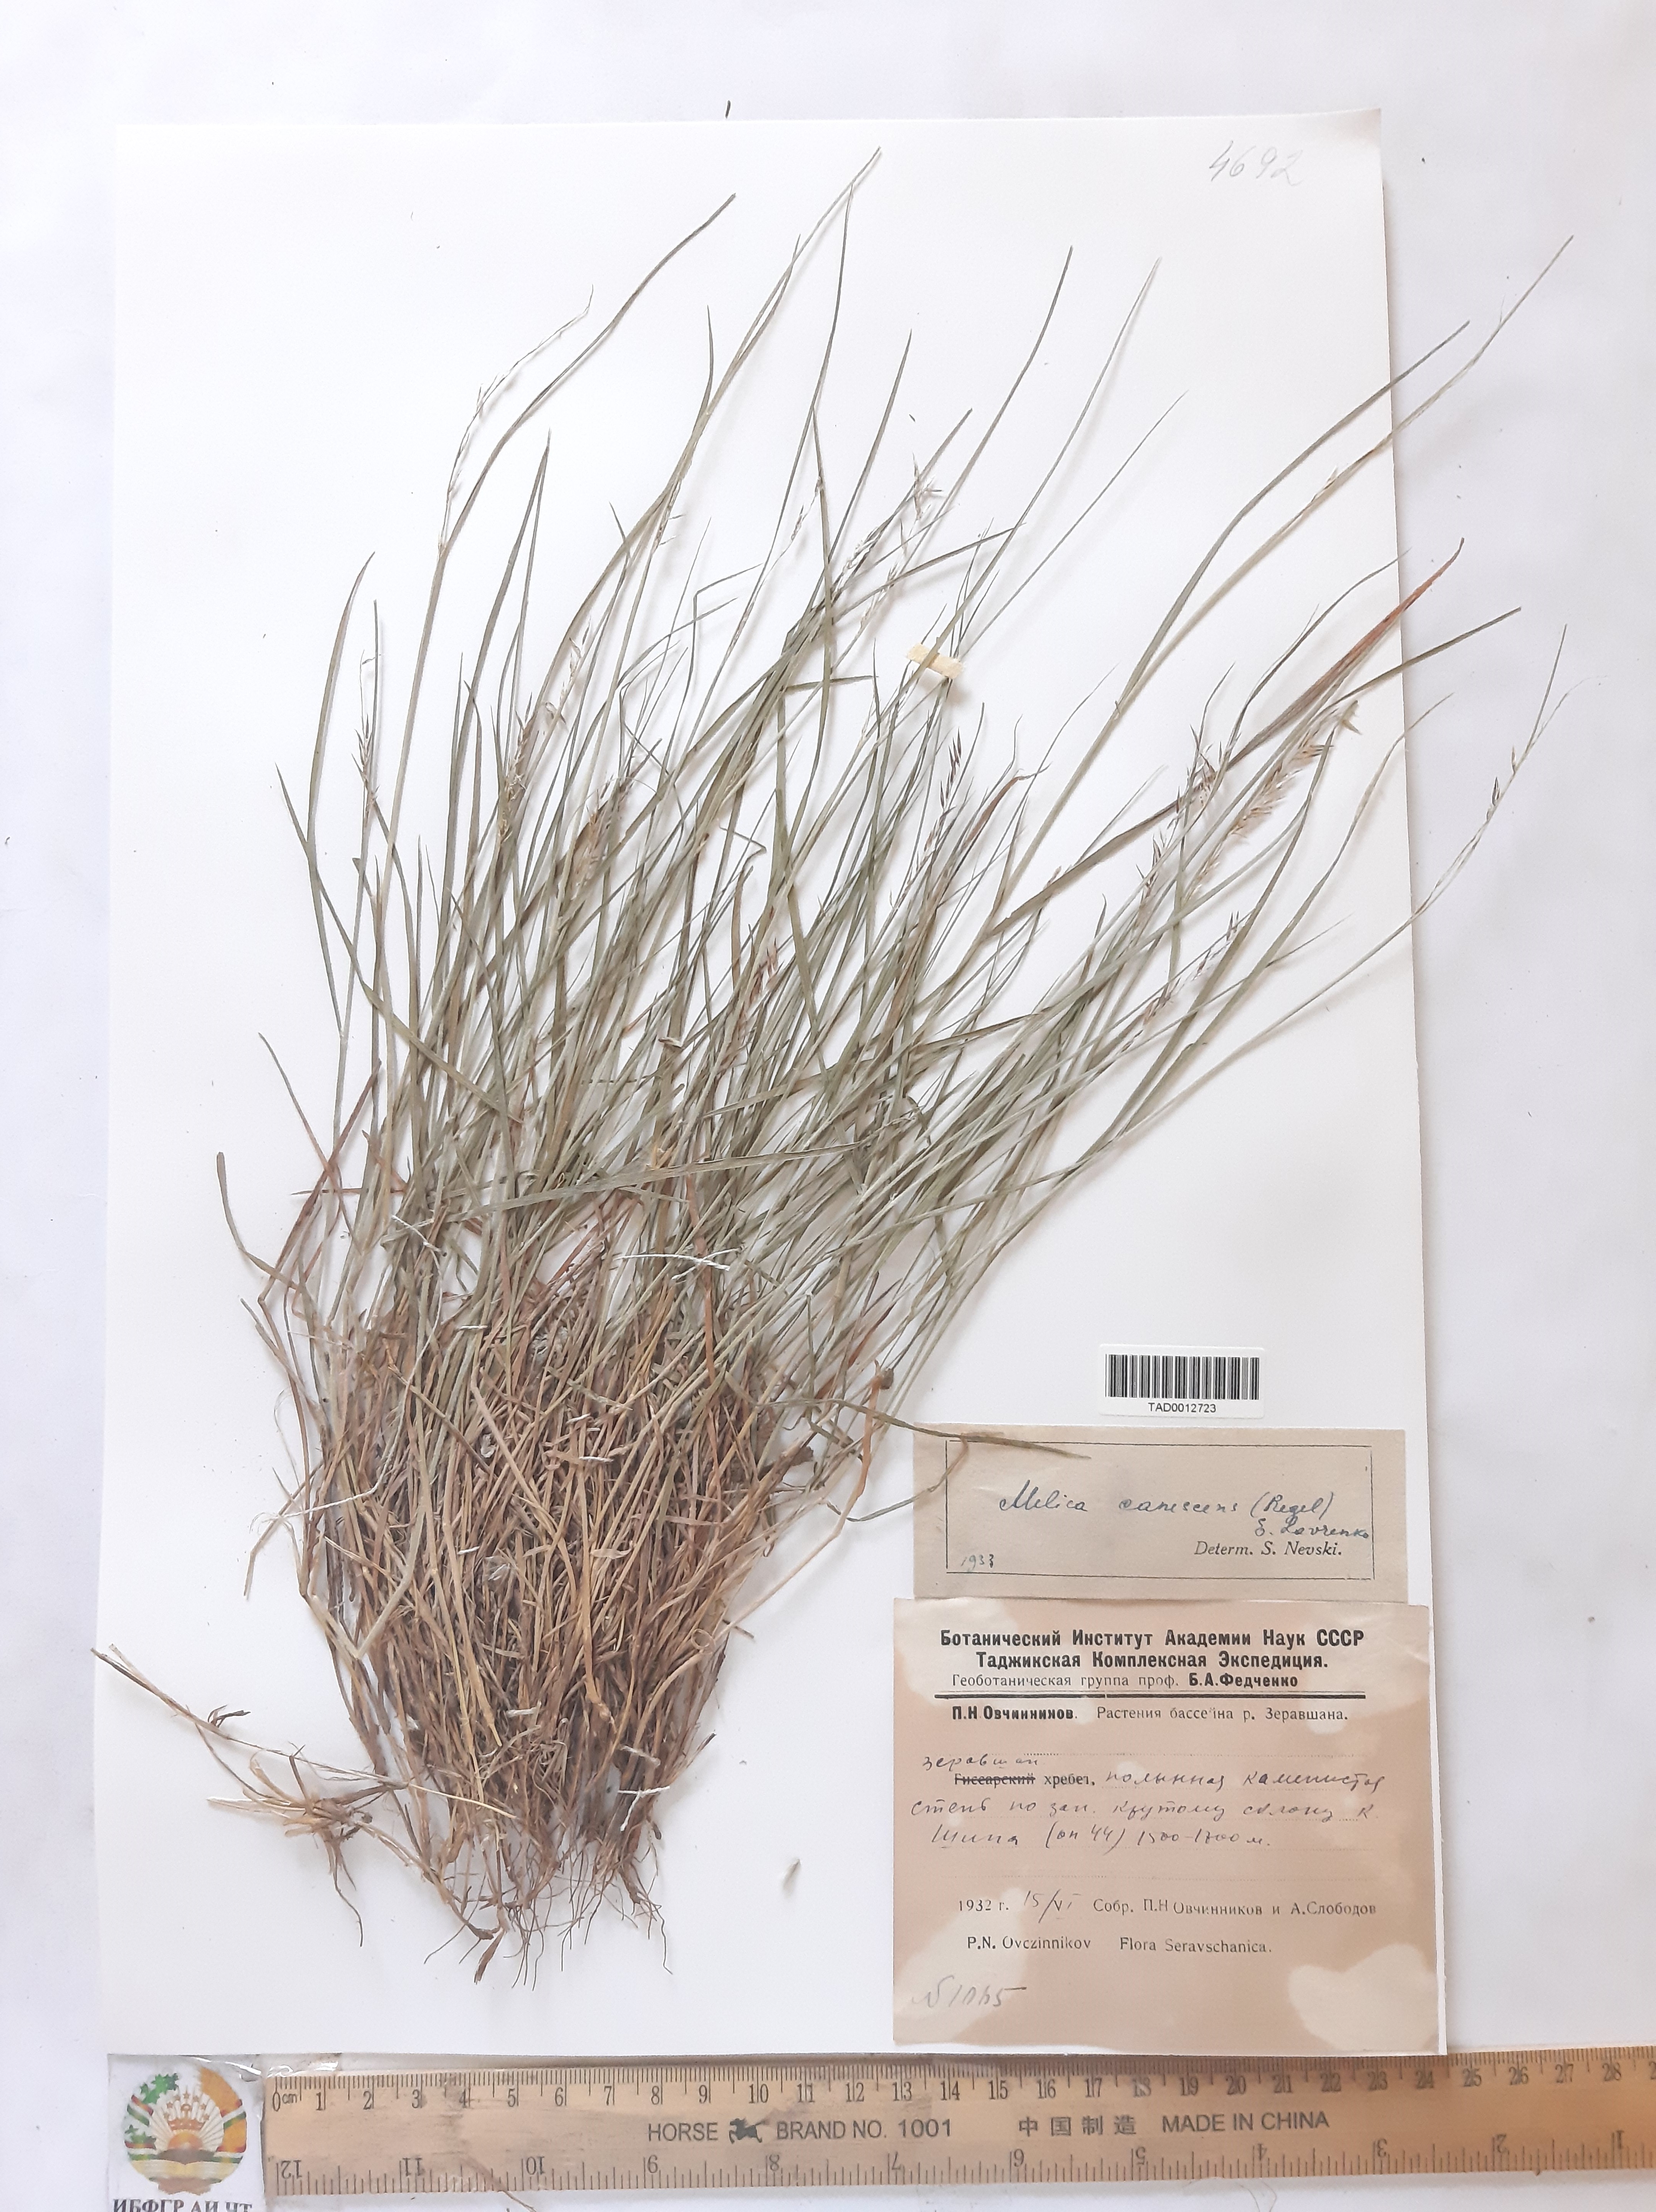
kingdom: Plantae
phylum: Tracheophyta
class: Liliopsida
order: Poales
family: Poaceae
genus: Melica
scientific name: Melica persica
